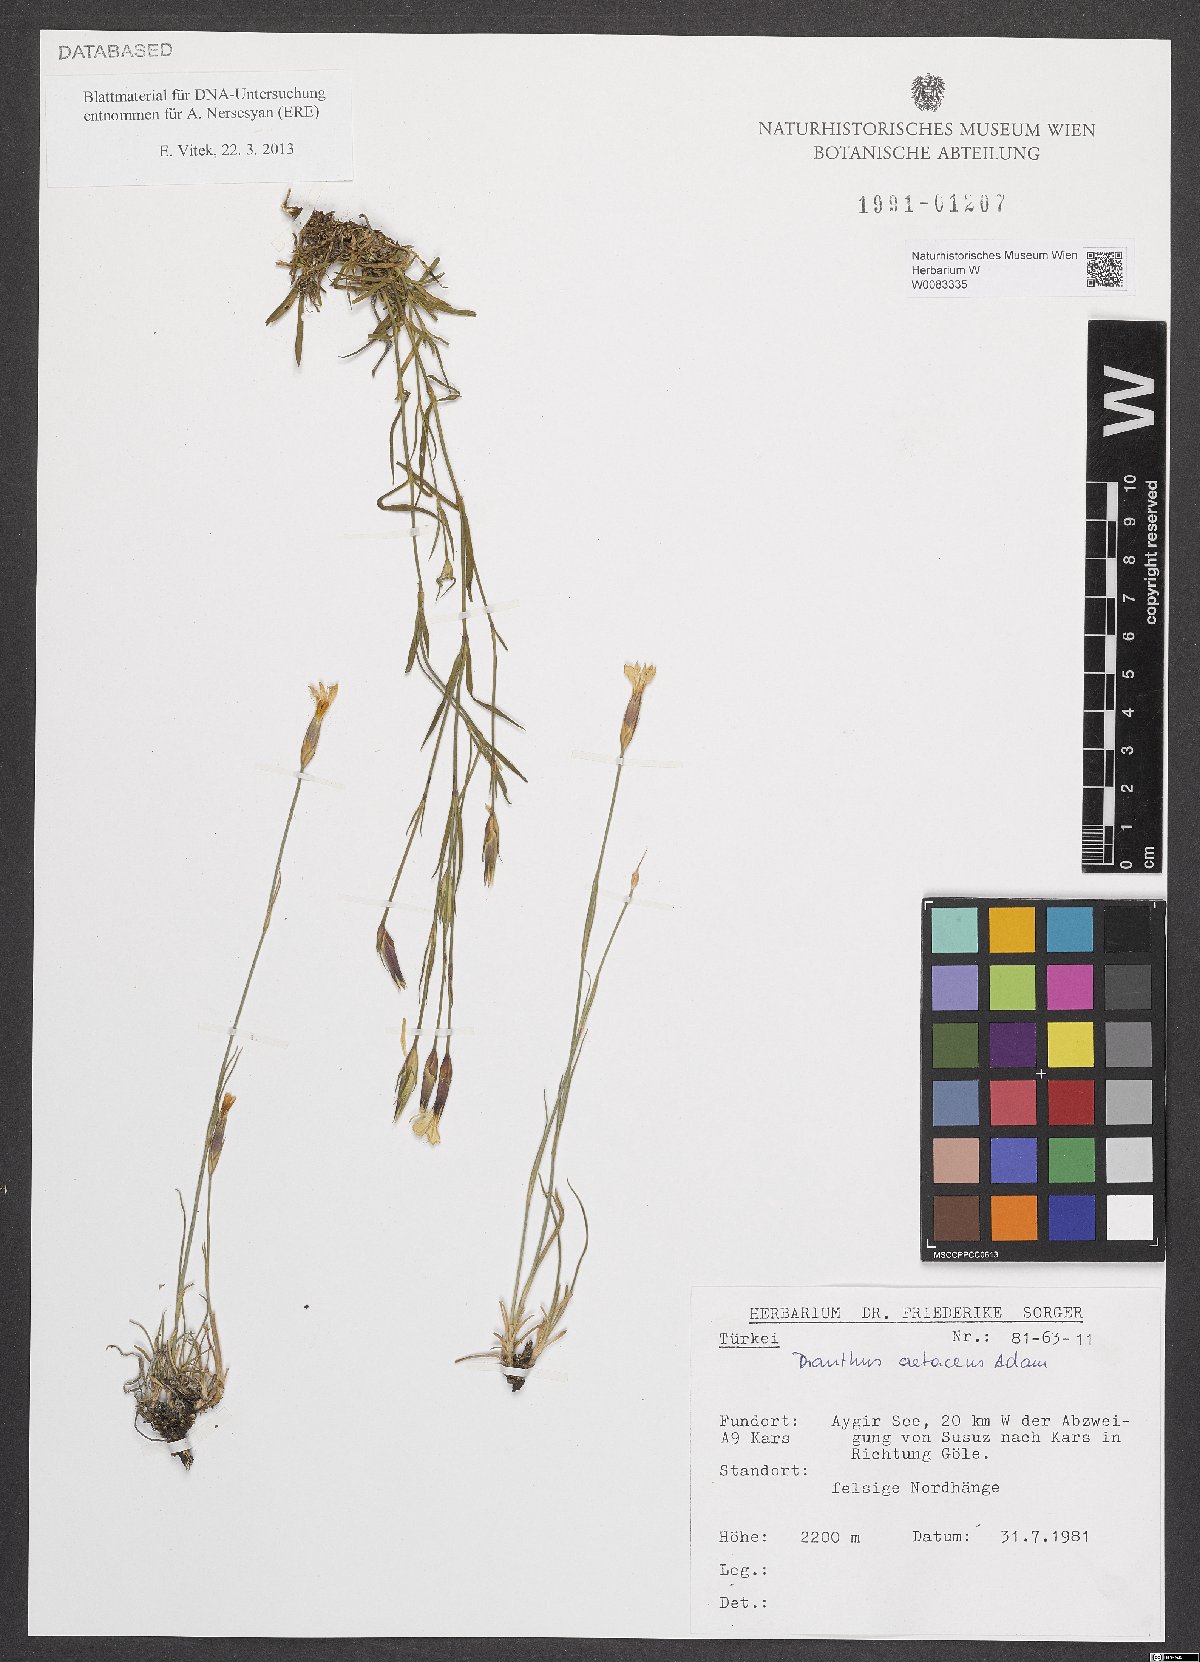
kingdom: Plantae
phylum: Tracheophyta
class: Magnoliopsida
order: Caryophyllales
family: Caryophyllaceae
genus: Dianthus
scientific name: Dianthus cretaceus
